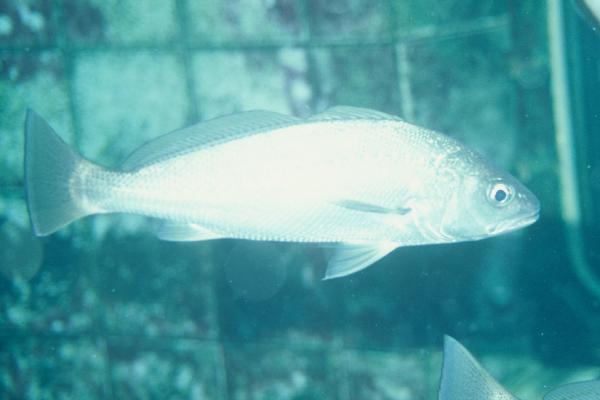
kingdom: Animalia
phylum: Chordata
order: Perciformes
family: Sciaenidae
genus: Argyrosomus
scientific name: Argyrosomus
